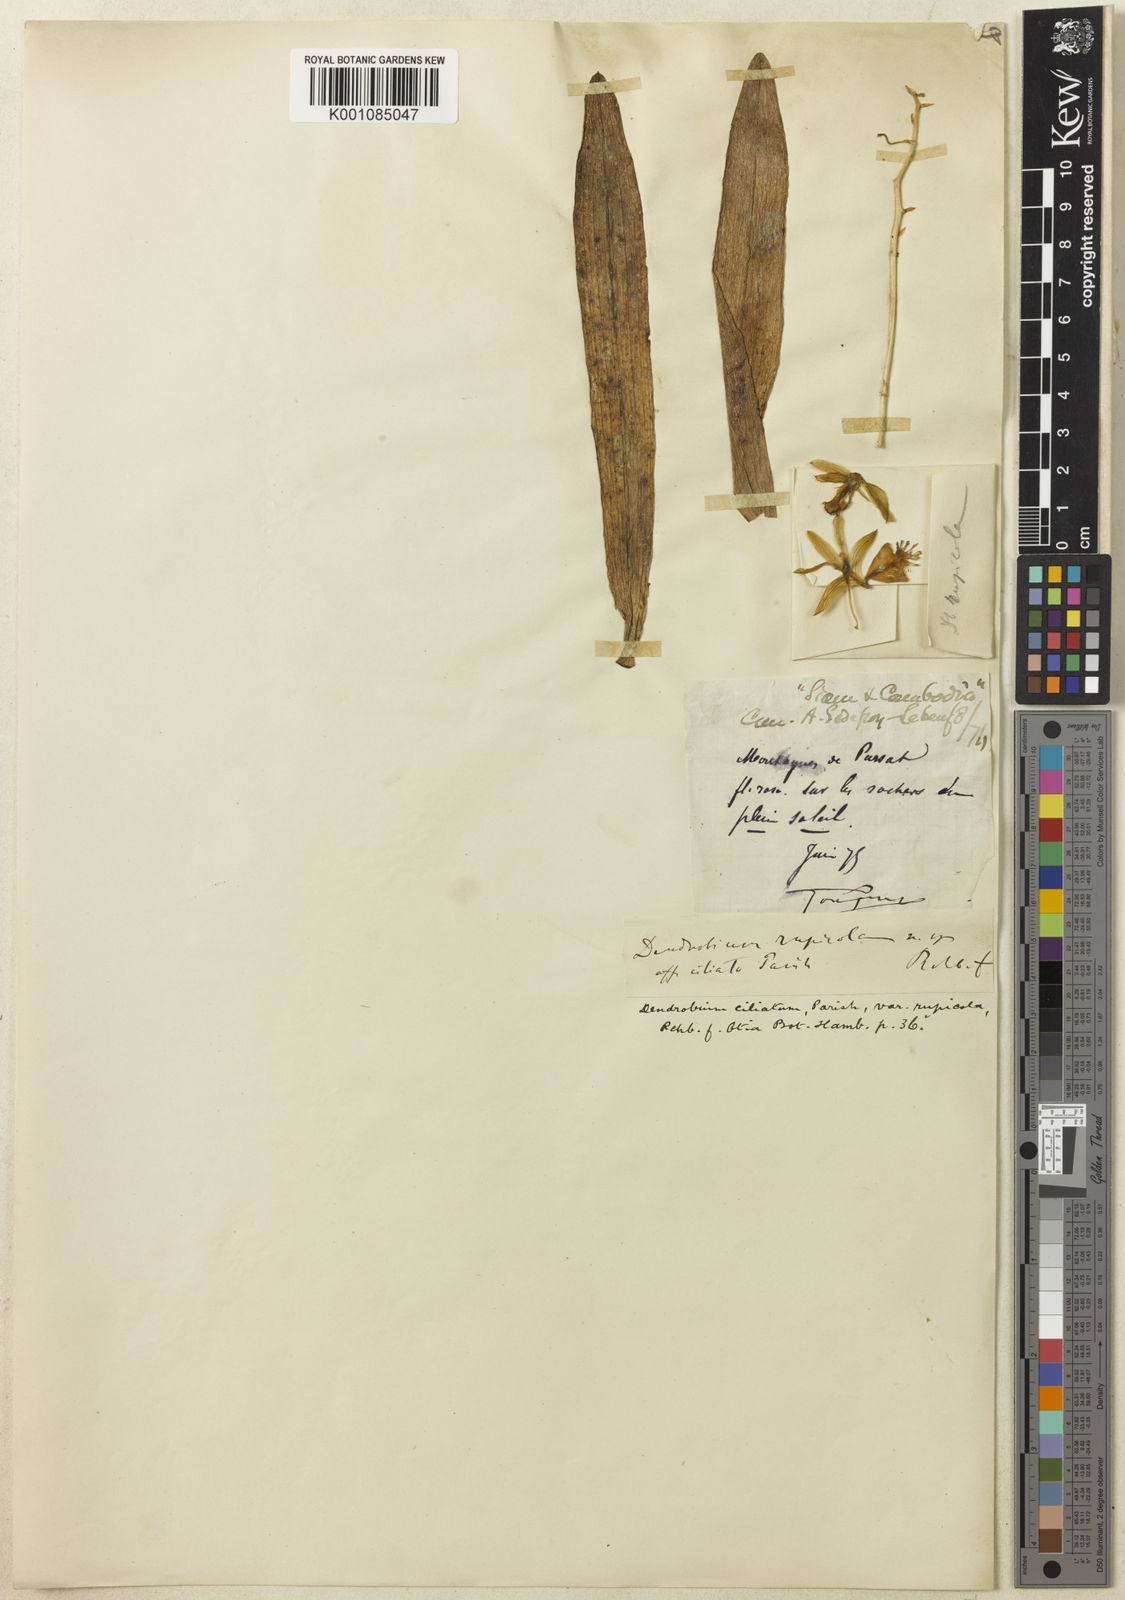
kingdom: Plantae
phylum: Tracheophyta
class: Liliopsida
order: Asparagales
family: Orchidaceae
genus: Dendrobium
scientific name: Dendrobium venustum
